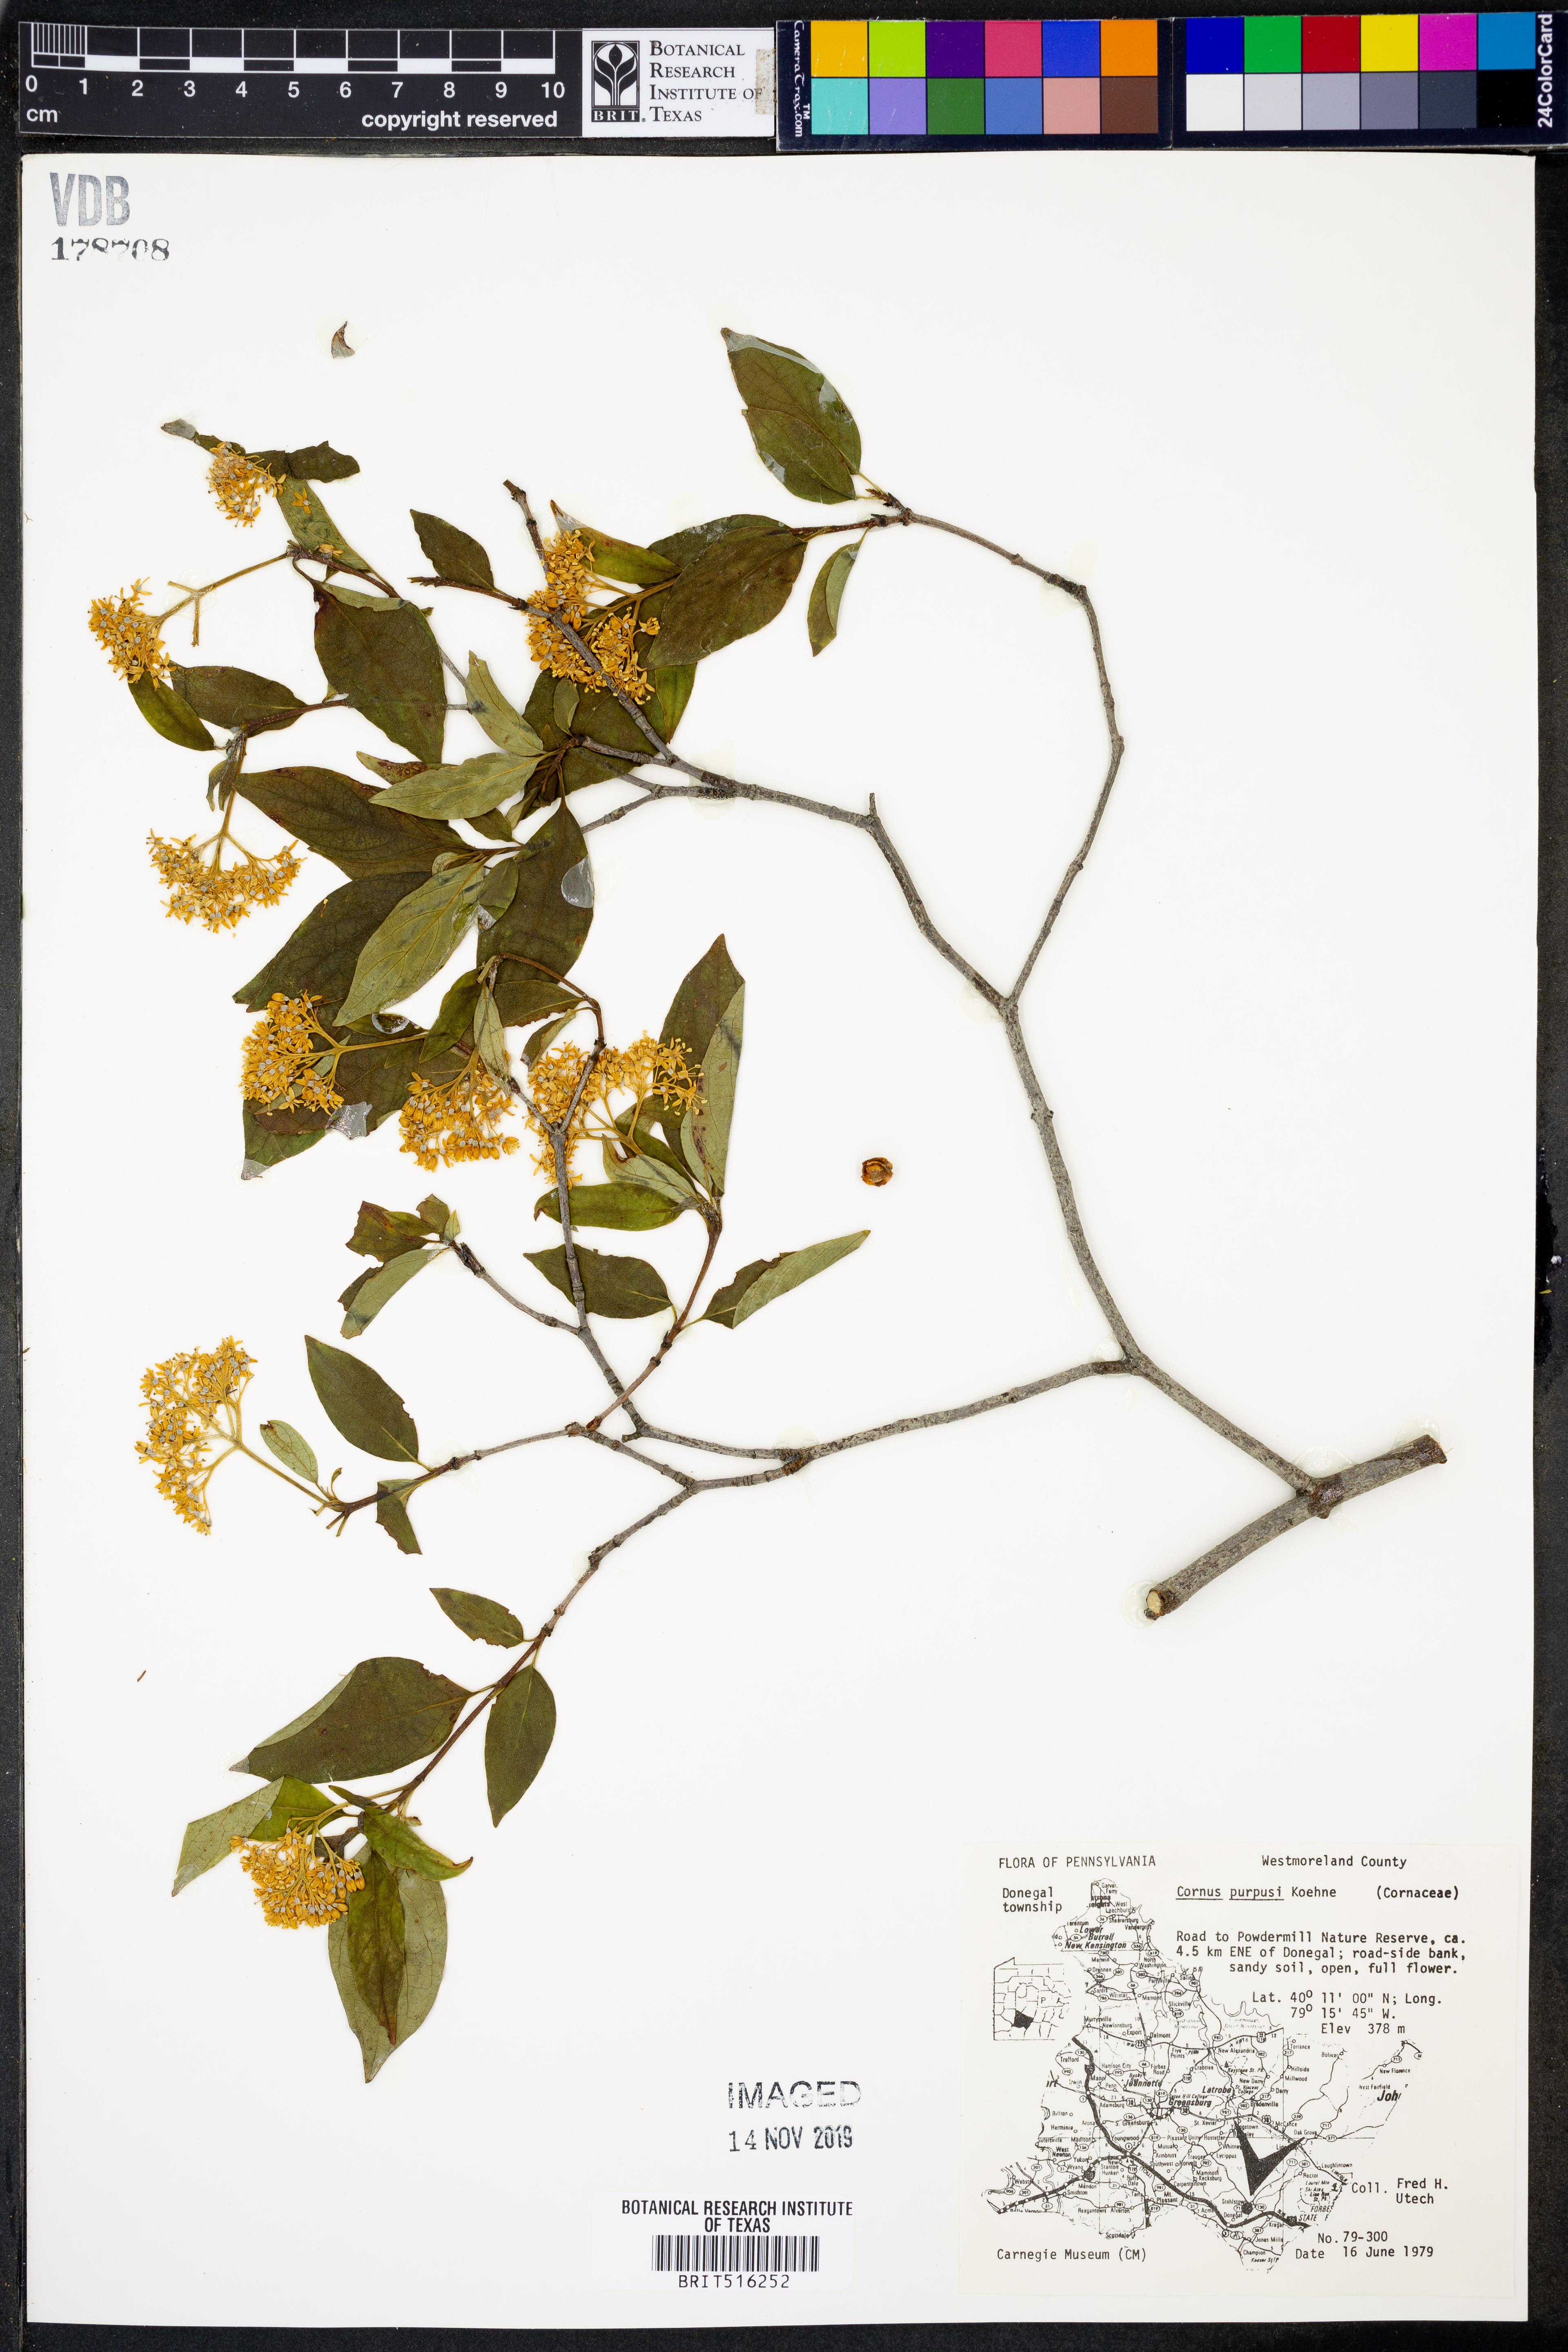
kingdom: Plantae
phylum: Tracheophyta
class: Magnoliopsida
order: Cornales
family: Cornaceae
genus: Cornus
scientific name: Cornus obliqua
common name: Pale dogwood
